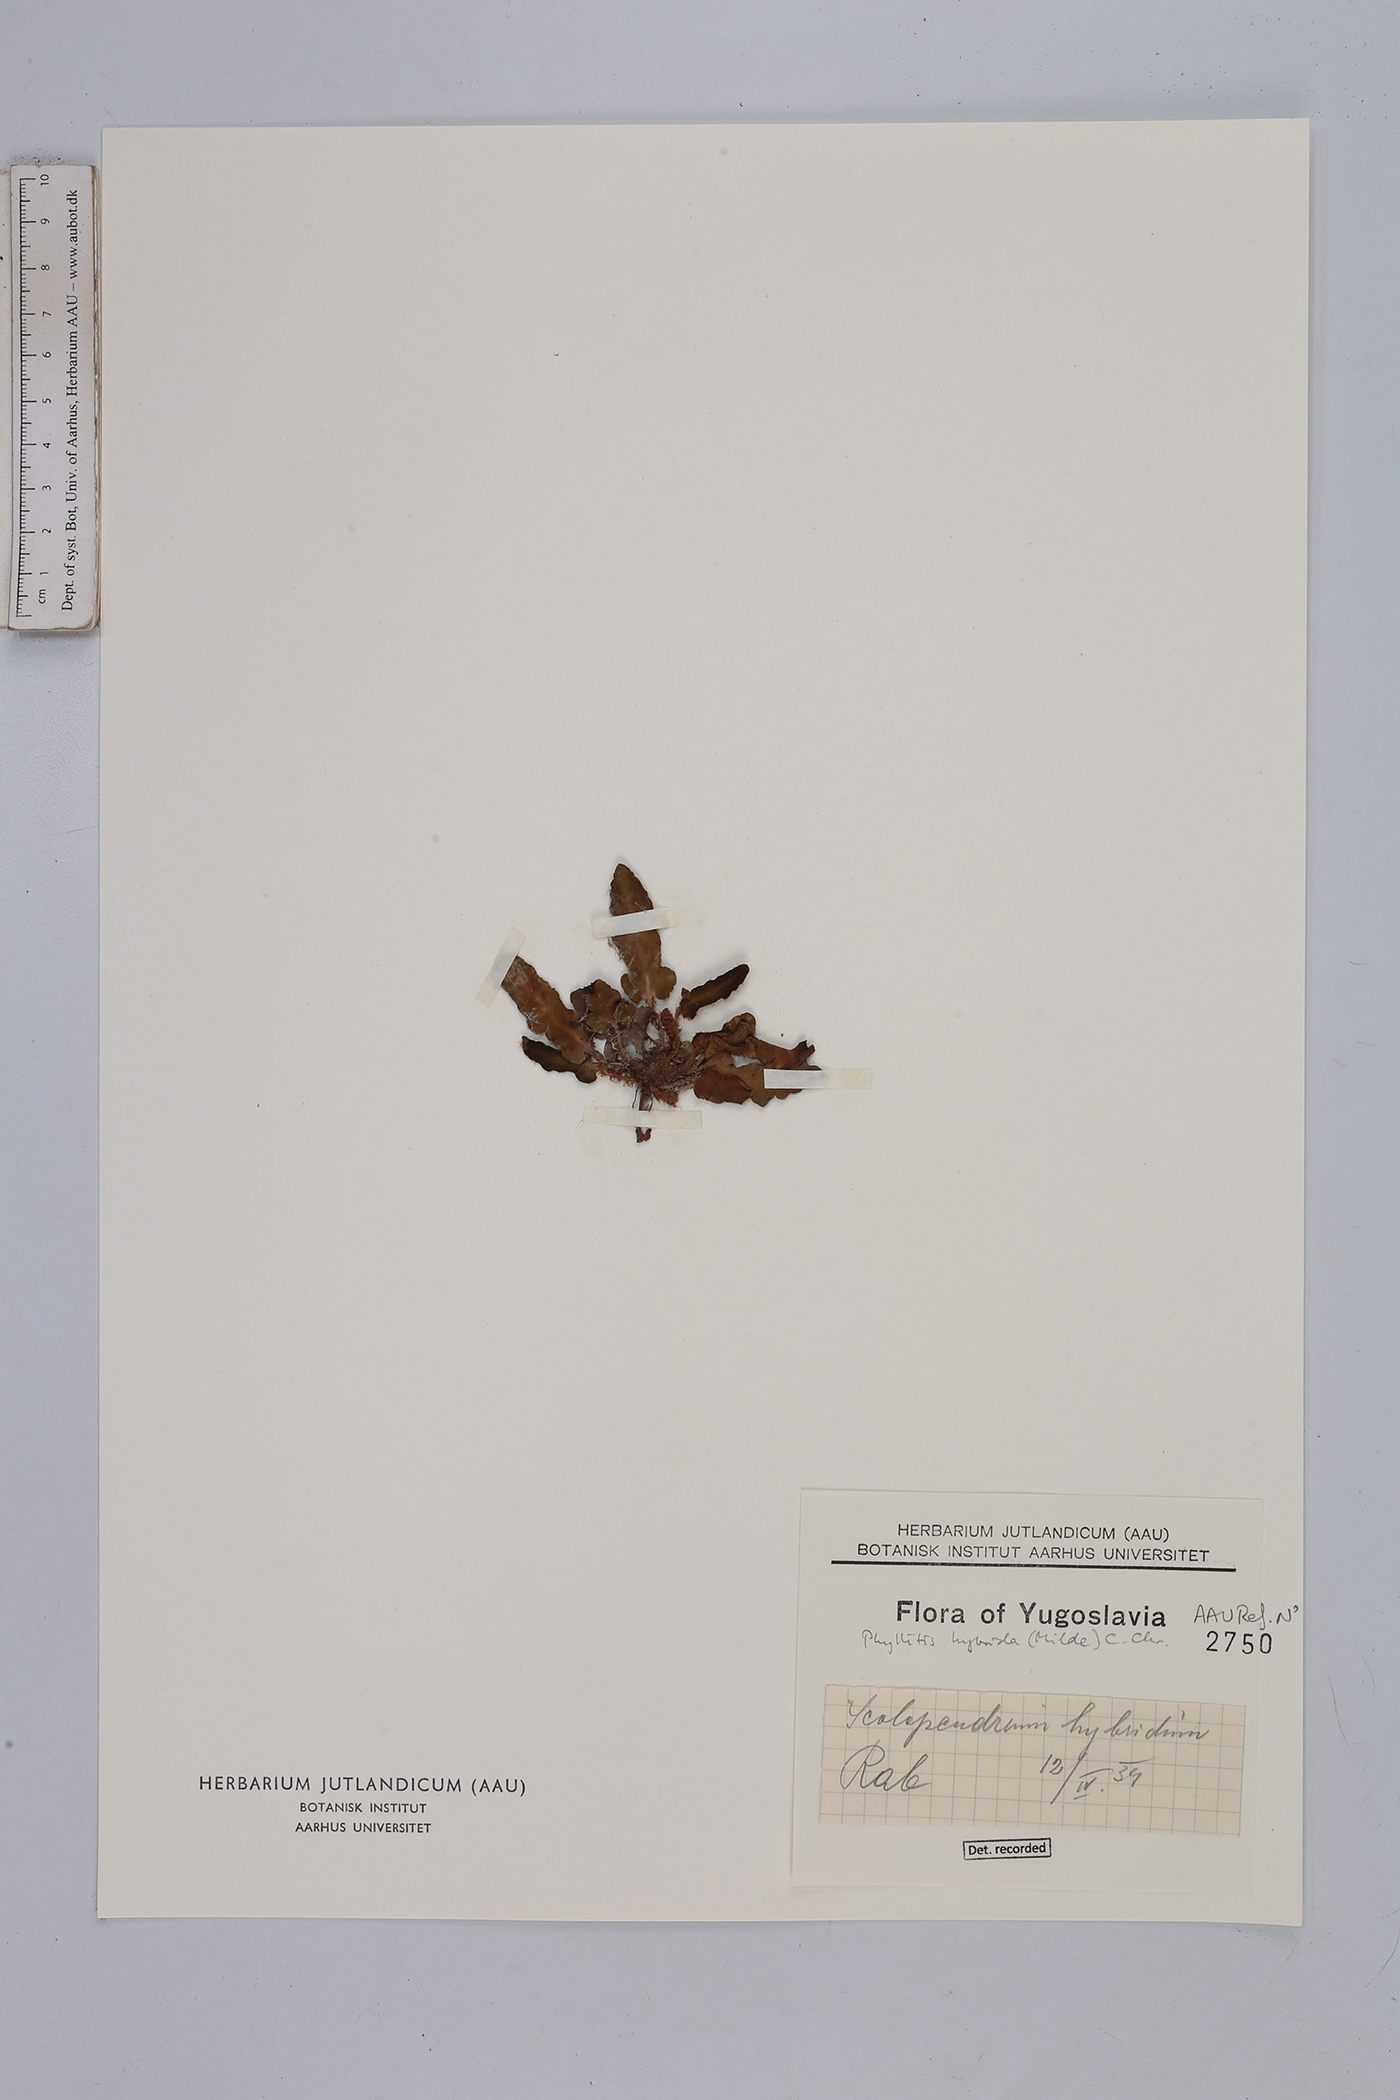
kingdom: Plantae
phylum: Tracheophyta
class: Polypodiopsida
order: Polypodiales
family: Aspleniaceae
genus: Asplenium
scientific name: Asplenium hybridum
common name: Dalmatian spleenwort
